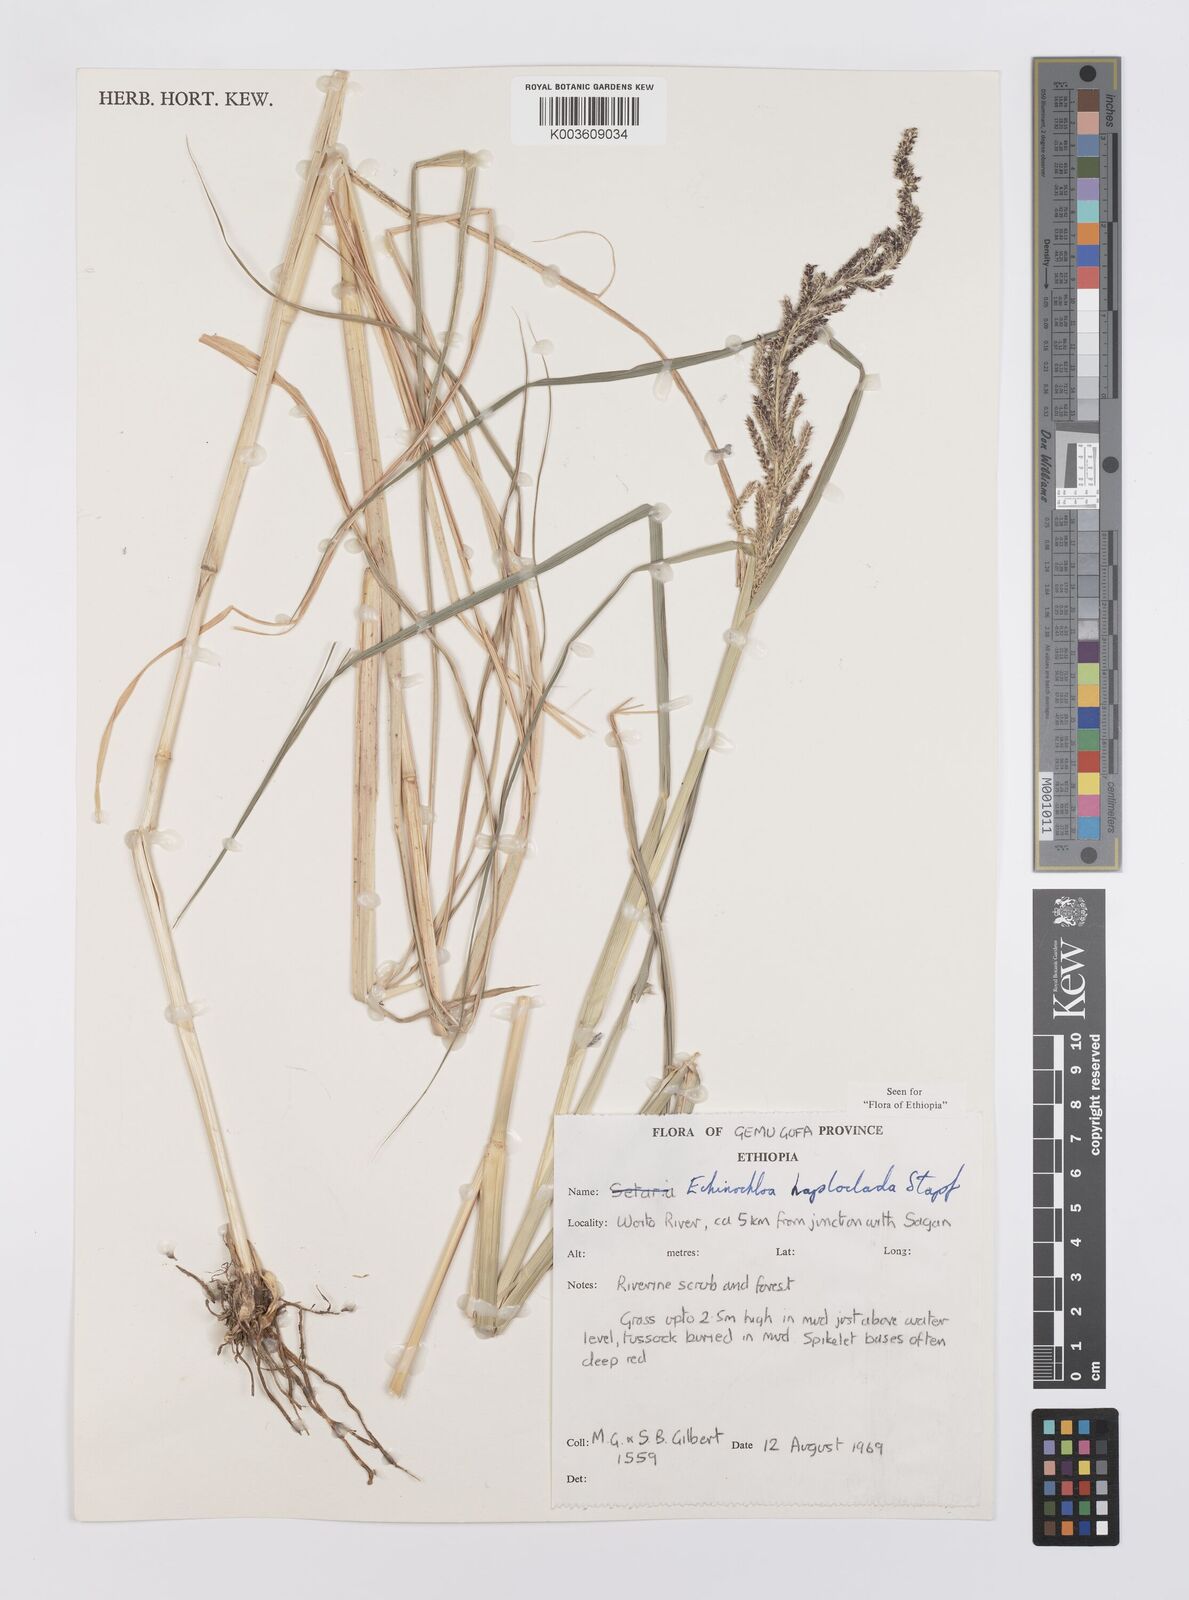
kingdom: Plantae
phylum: Tracheophyta
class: Liliopsida
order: Poales
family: Poaceae
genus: Echinochloa
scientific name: Echinochloa haploclada
